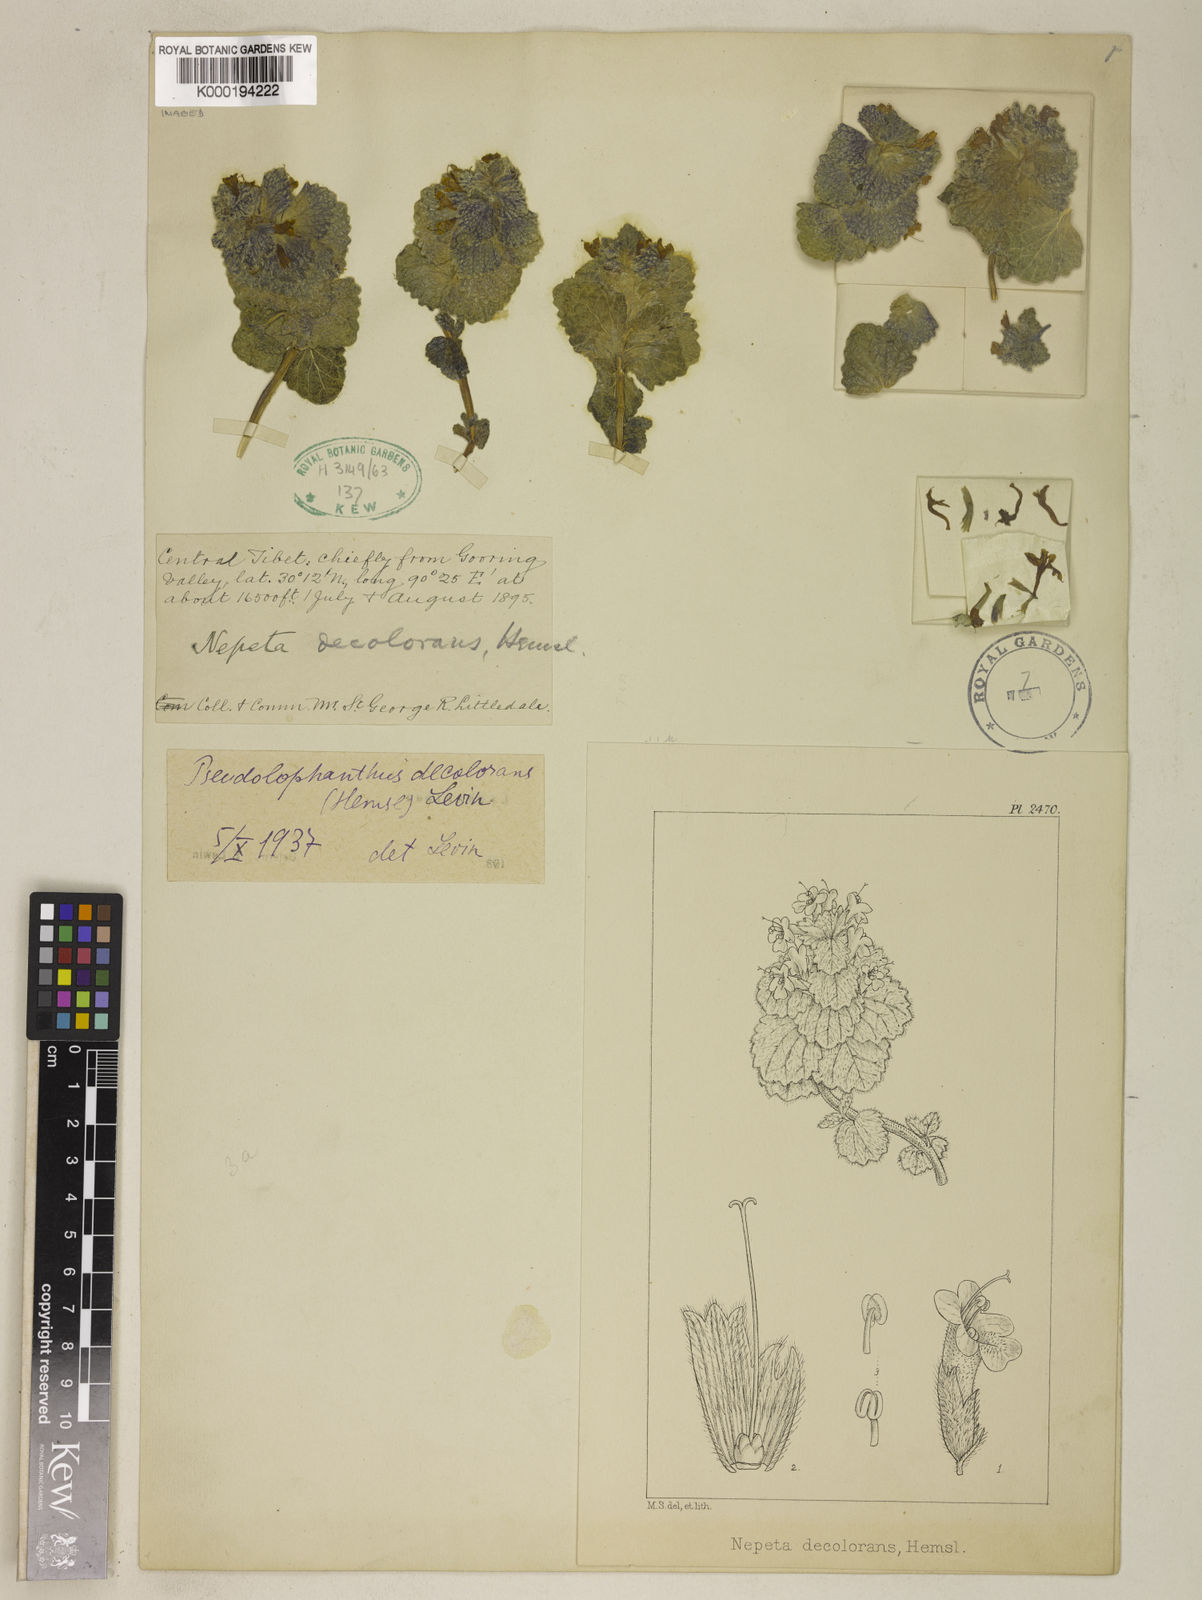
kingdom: Plantae
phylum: Tracheophyta
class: Magnoliopsida
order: Lamiales
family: Lamiaceae
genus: Nepeta
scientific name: Nepeta decolorans
